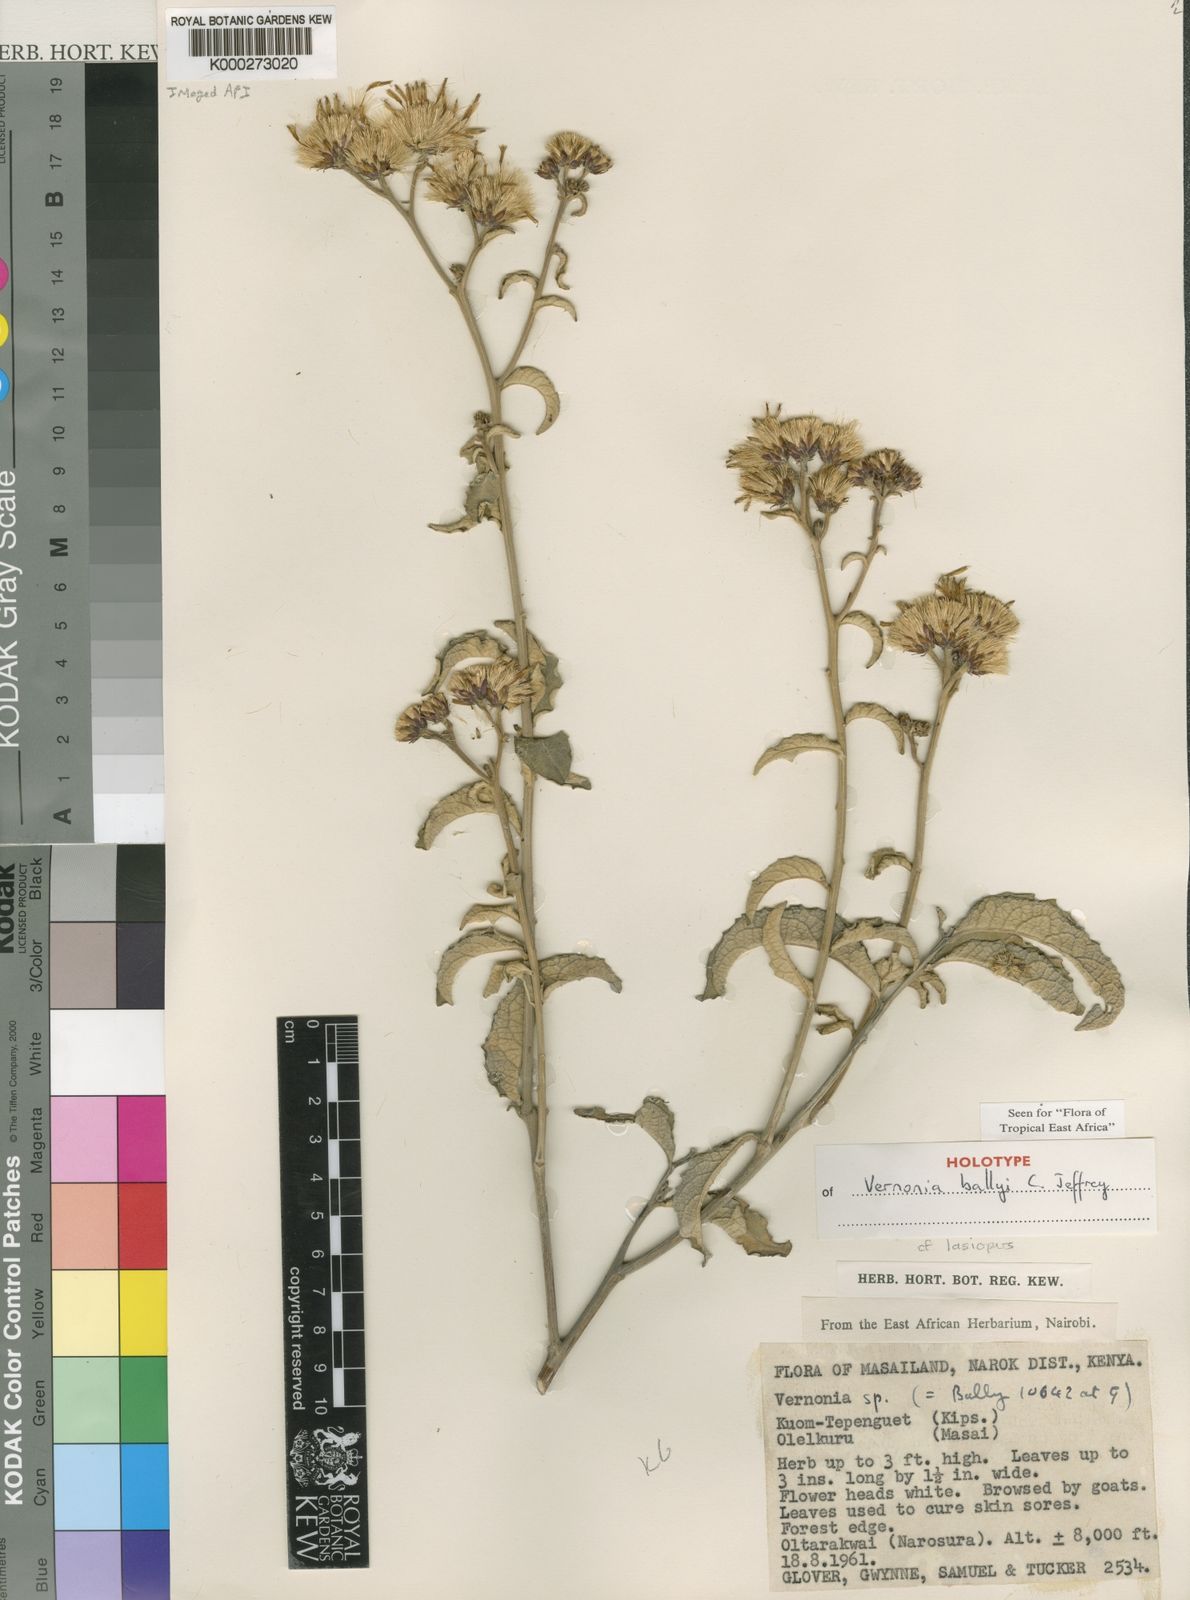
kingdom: Plantae
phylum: Tracheophyta
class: Magnoliopsida
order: Asterales
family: Asteraceae
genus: Baccharoides
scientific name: Baccharoides ballyi
